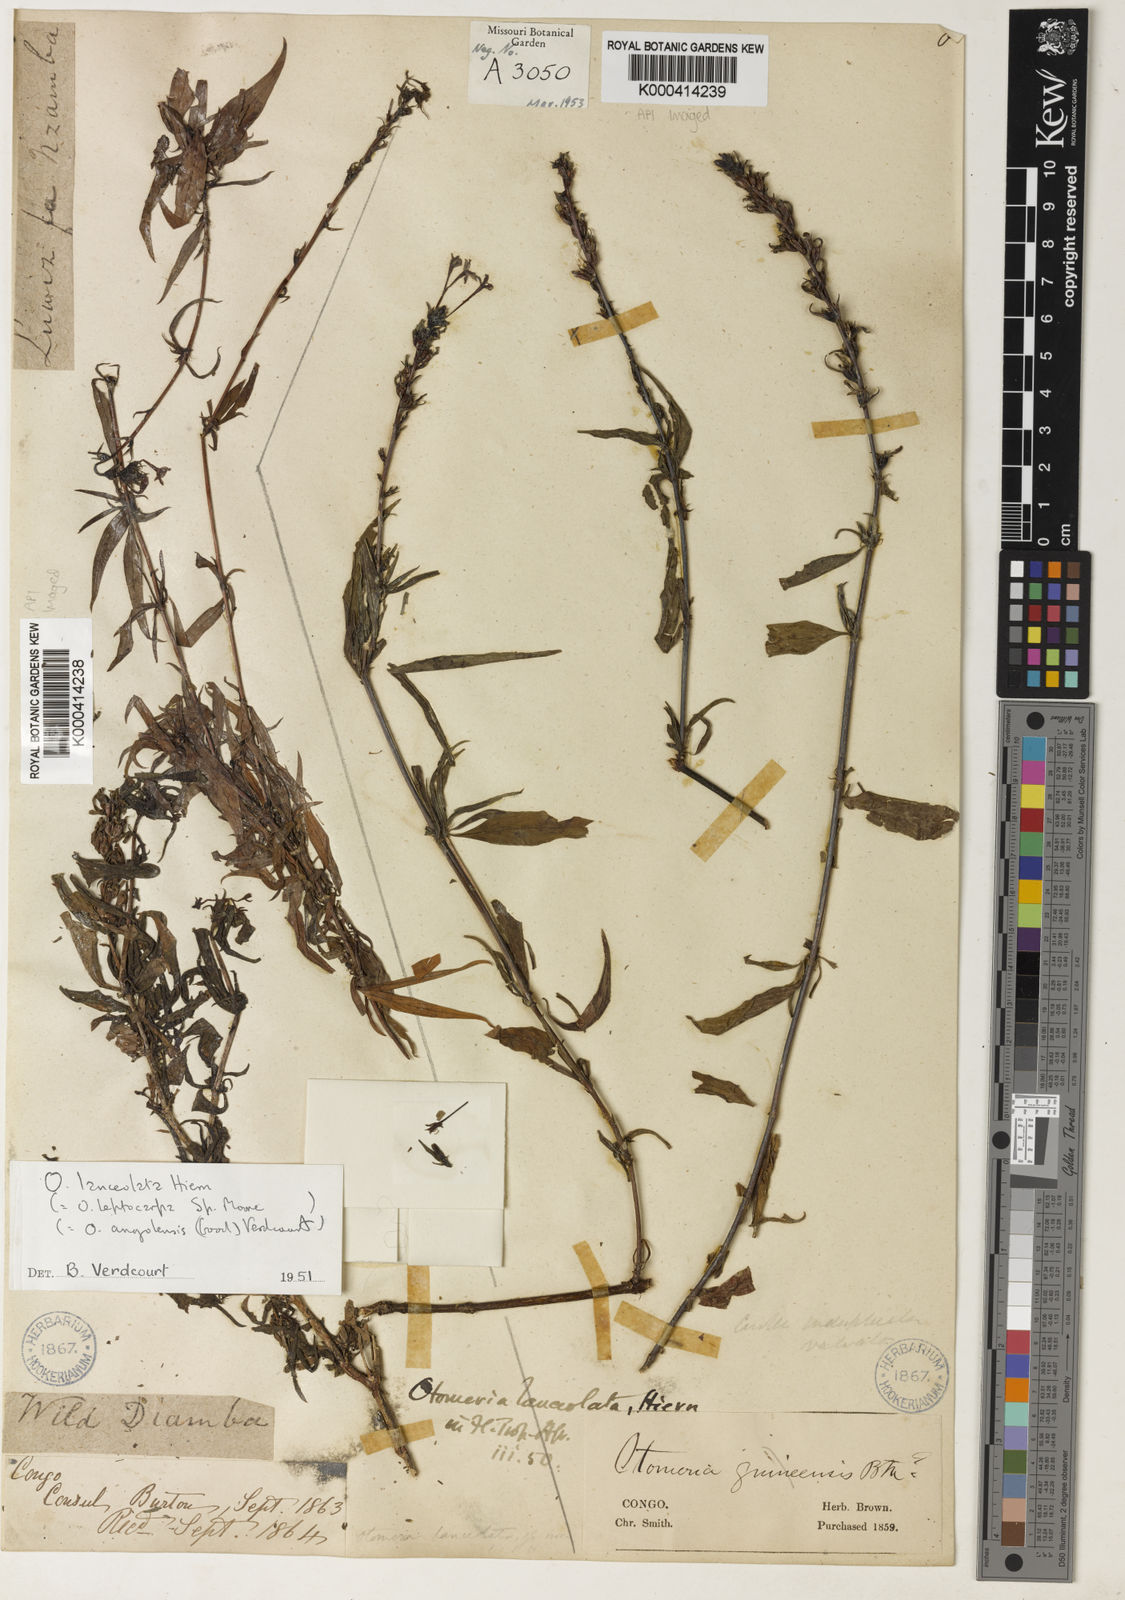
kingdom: Plantae
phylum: Tracheophyta
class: Magnoliopsida
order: Gentianales
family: Rubiaceae
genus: Otomeria
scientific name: Otomeria lanceolata
